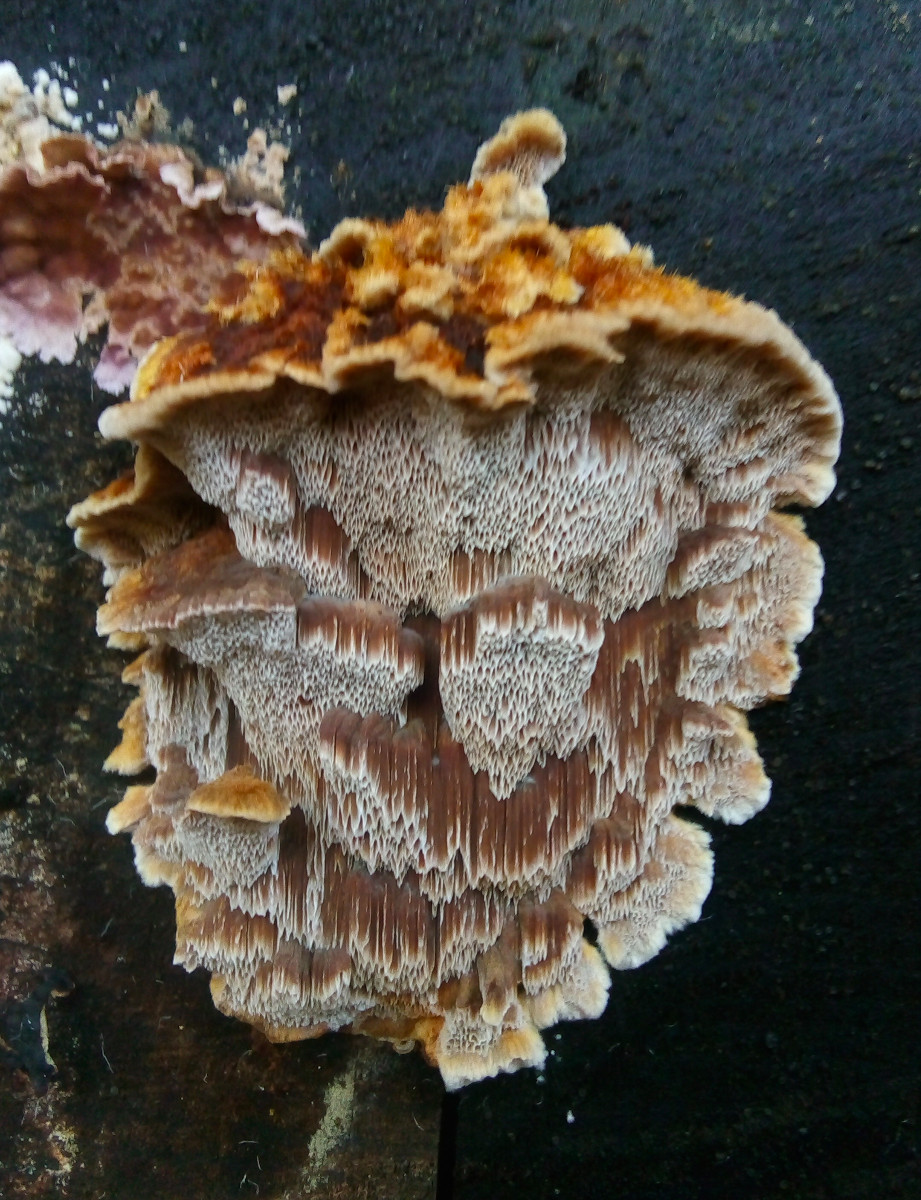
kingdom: Fungi
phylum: Basidiomycota
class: Agaricomycetes
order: Hymenochaetales
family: Hymenochaetaceae
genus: Mensularia
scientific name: Mensularia nodulosa
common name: bøge-spejlporesvamp
